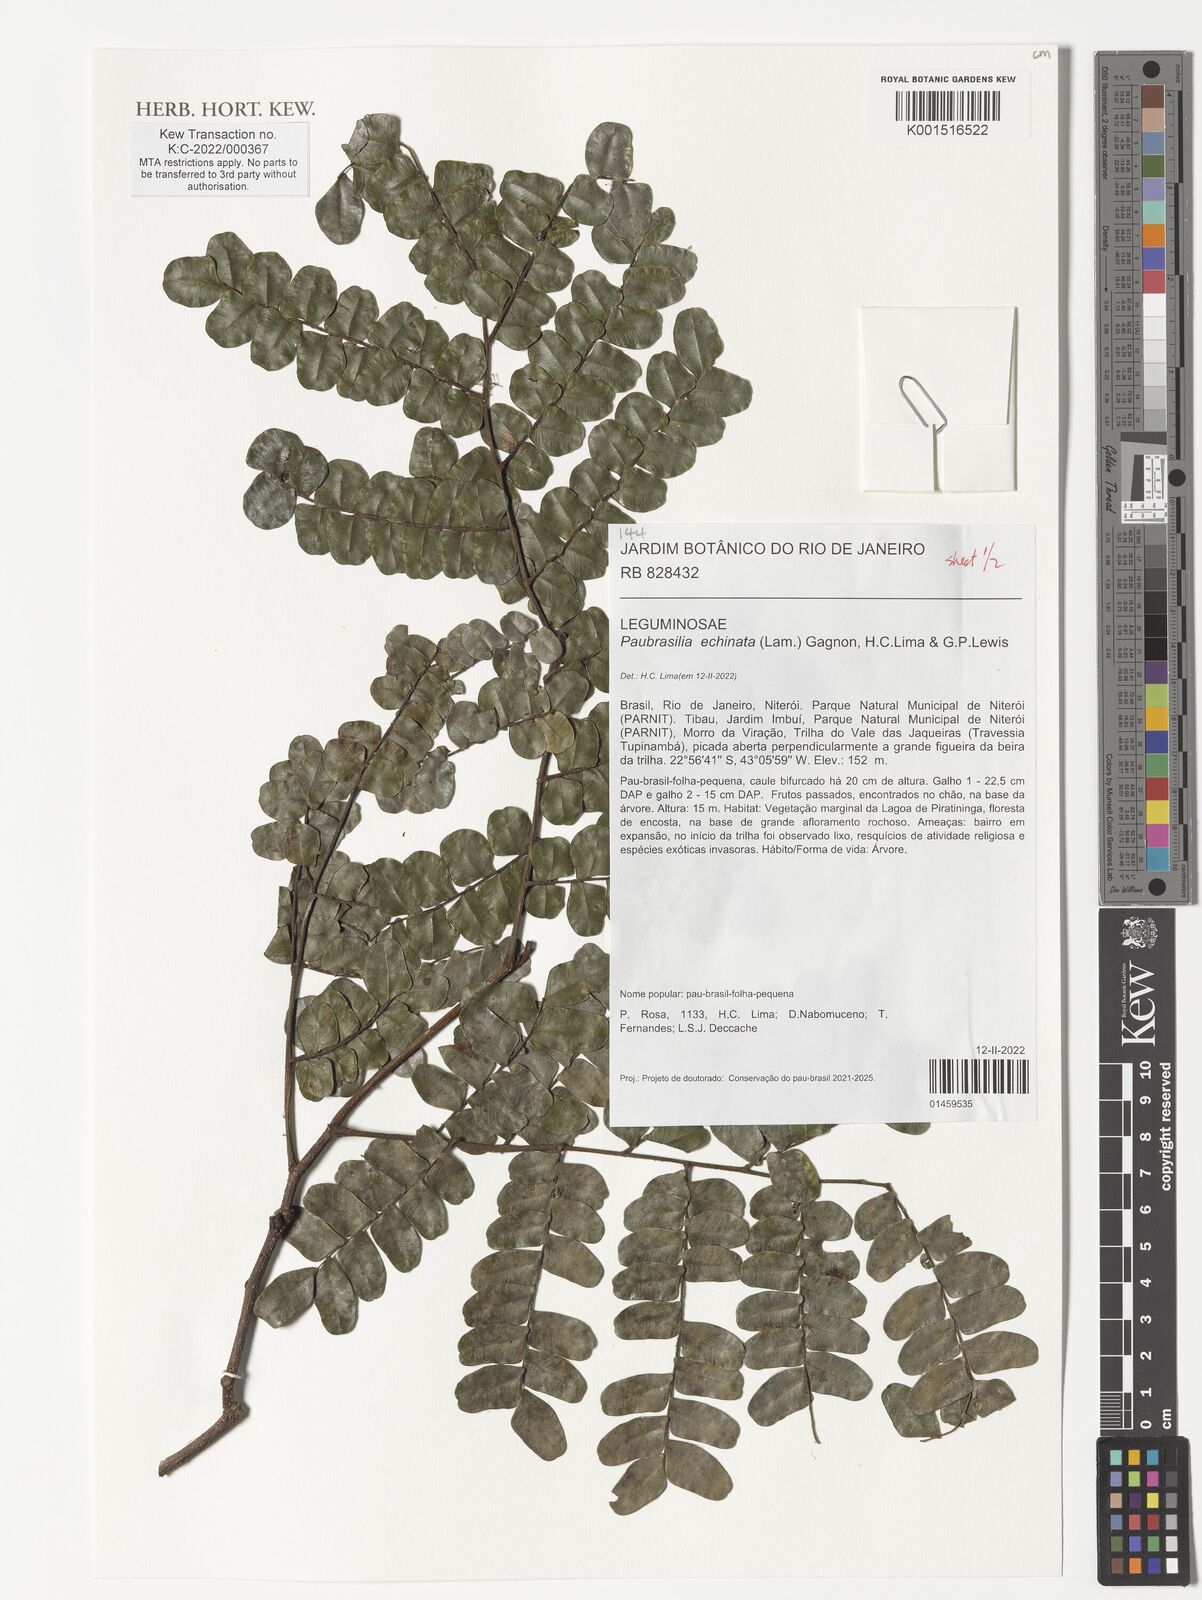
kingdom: Plantae
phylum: Tracheophyta
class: Magnoliopsida
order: Fabales
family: Fabaceae
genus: Paubrasilia
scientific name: Paubrasilia echinata
